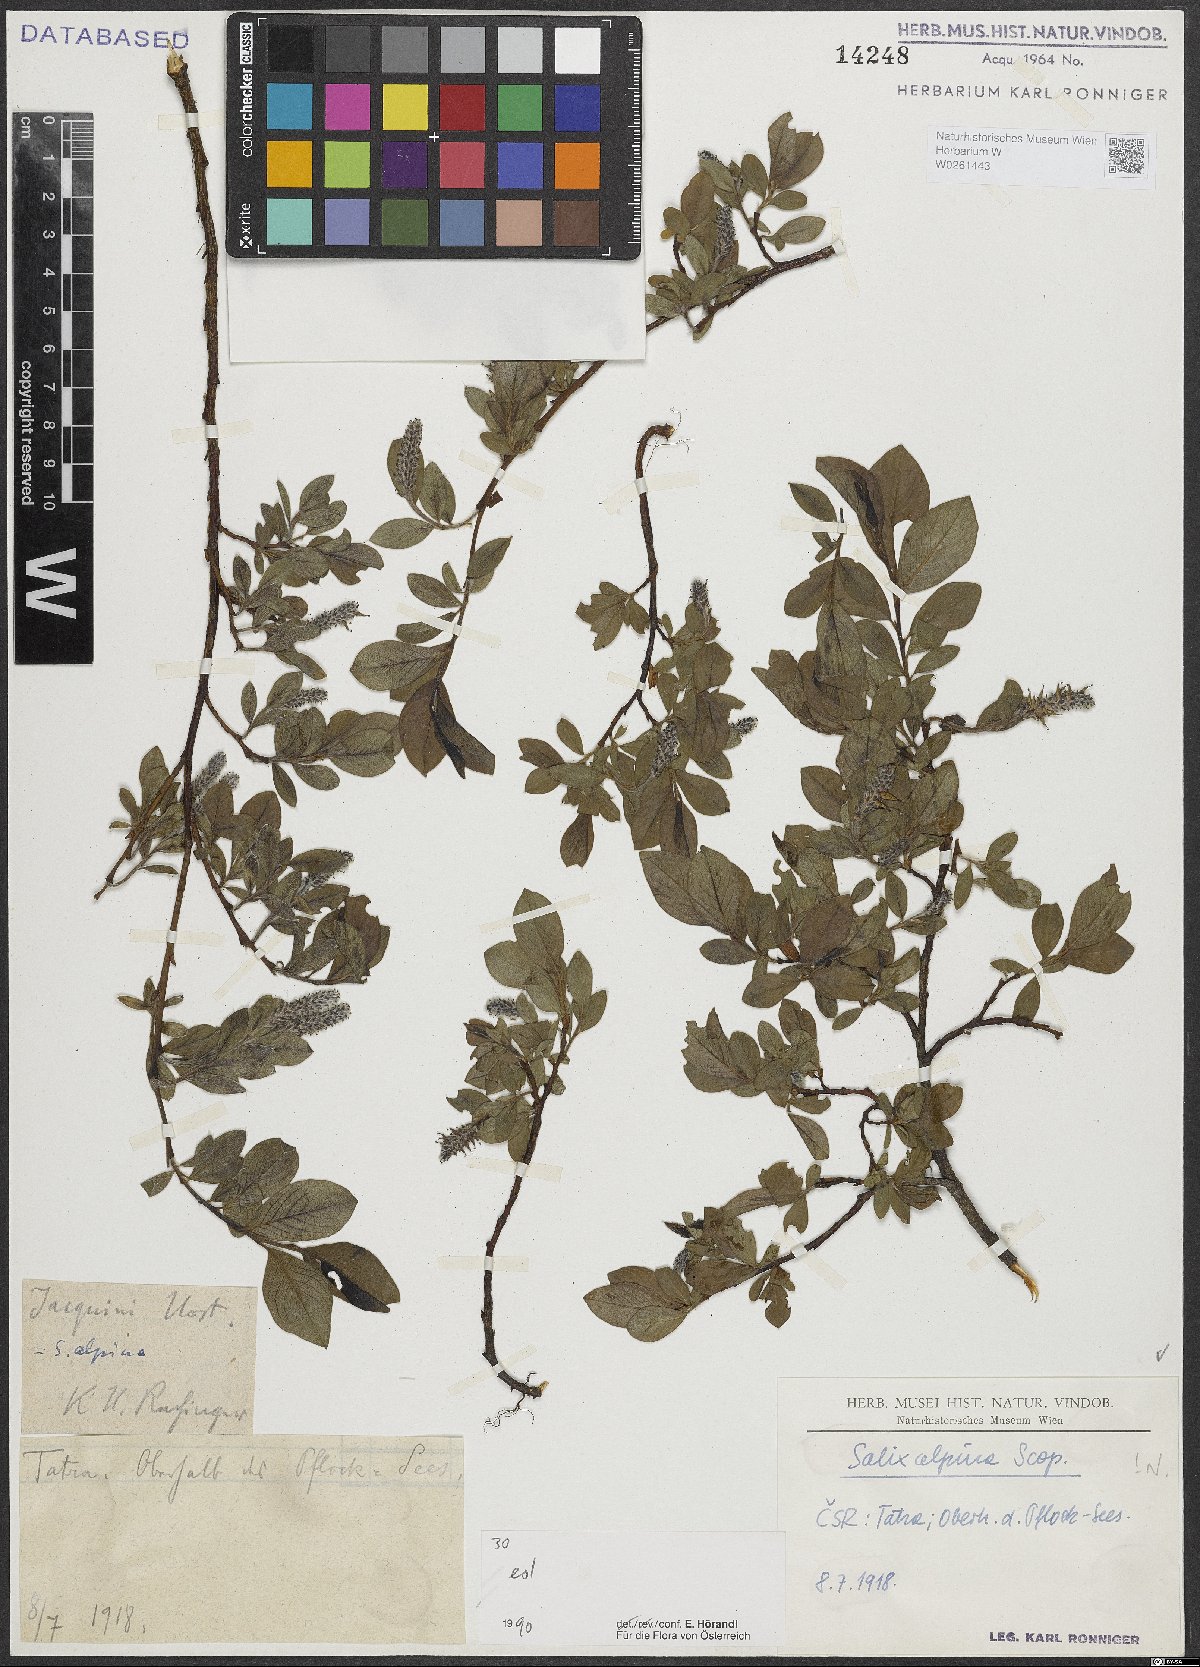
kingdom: Plantae
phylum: Tracheophyta
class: Magnoliopsida
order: Malpighiales
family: Salicaceae
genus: Salix
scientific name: Salix alpina
